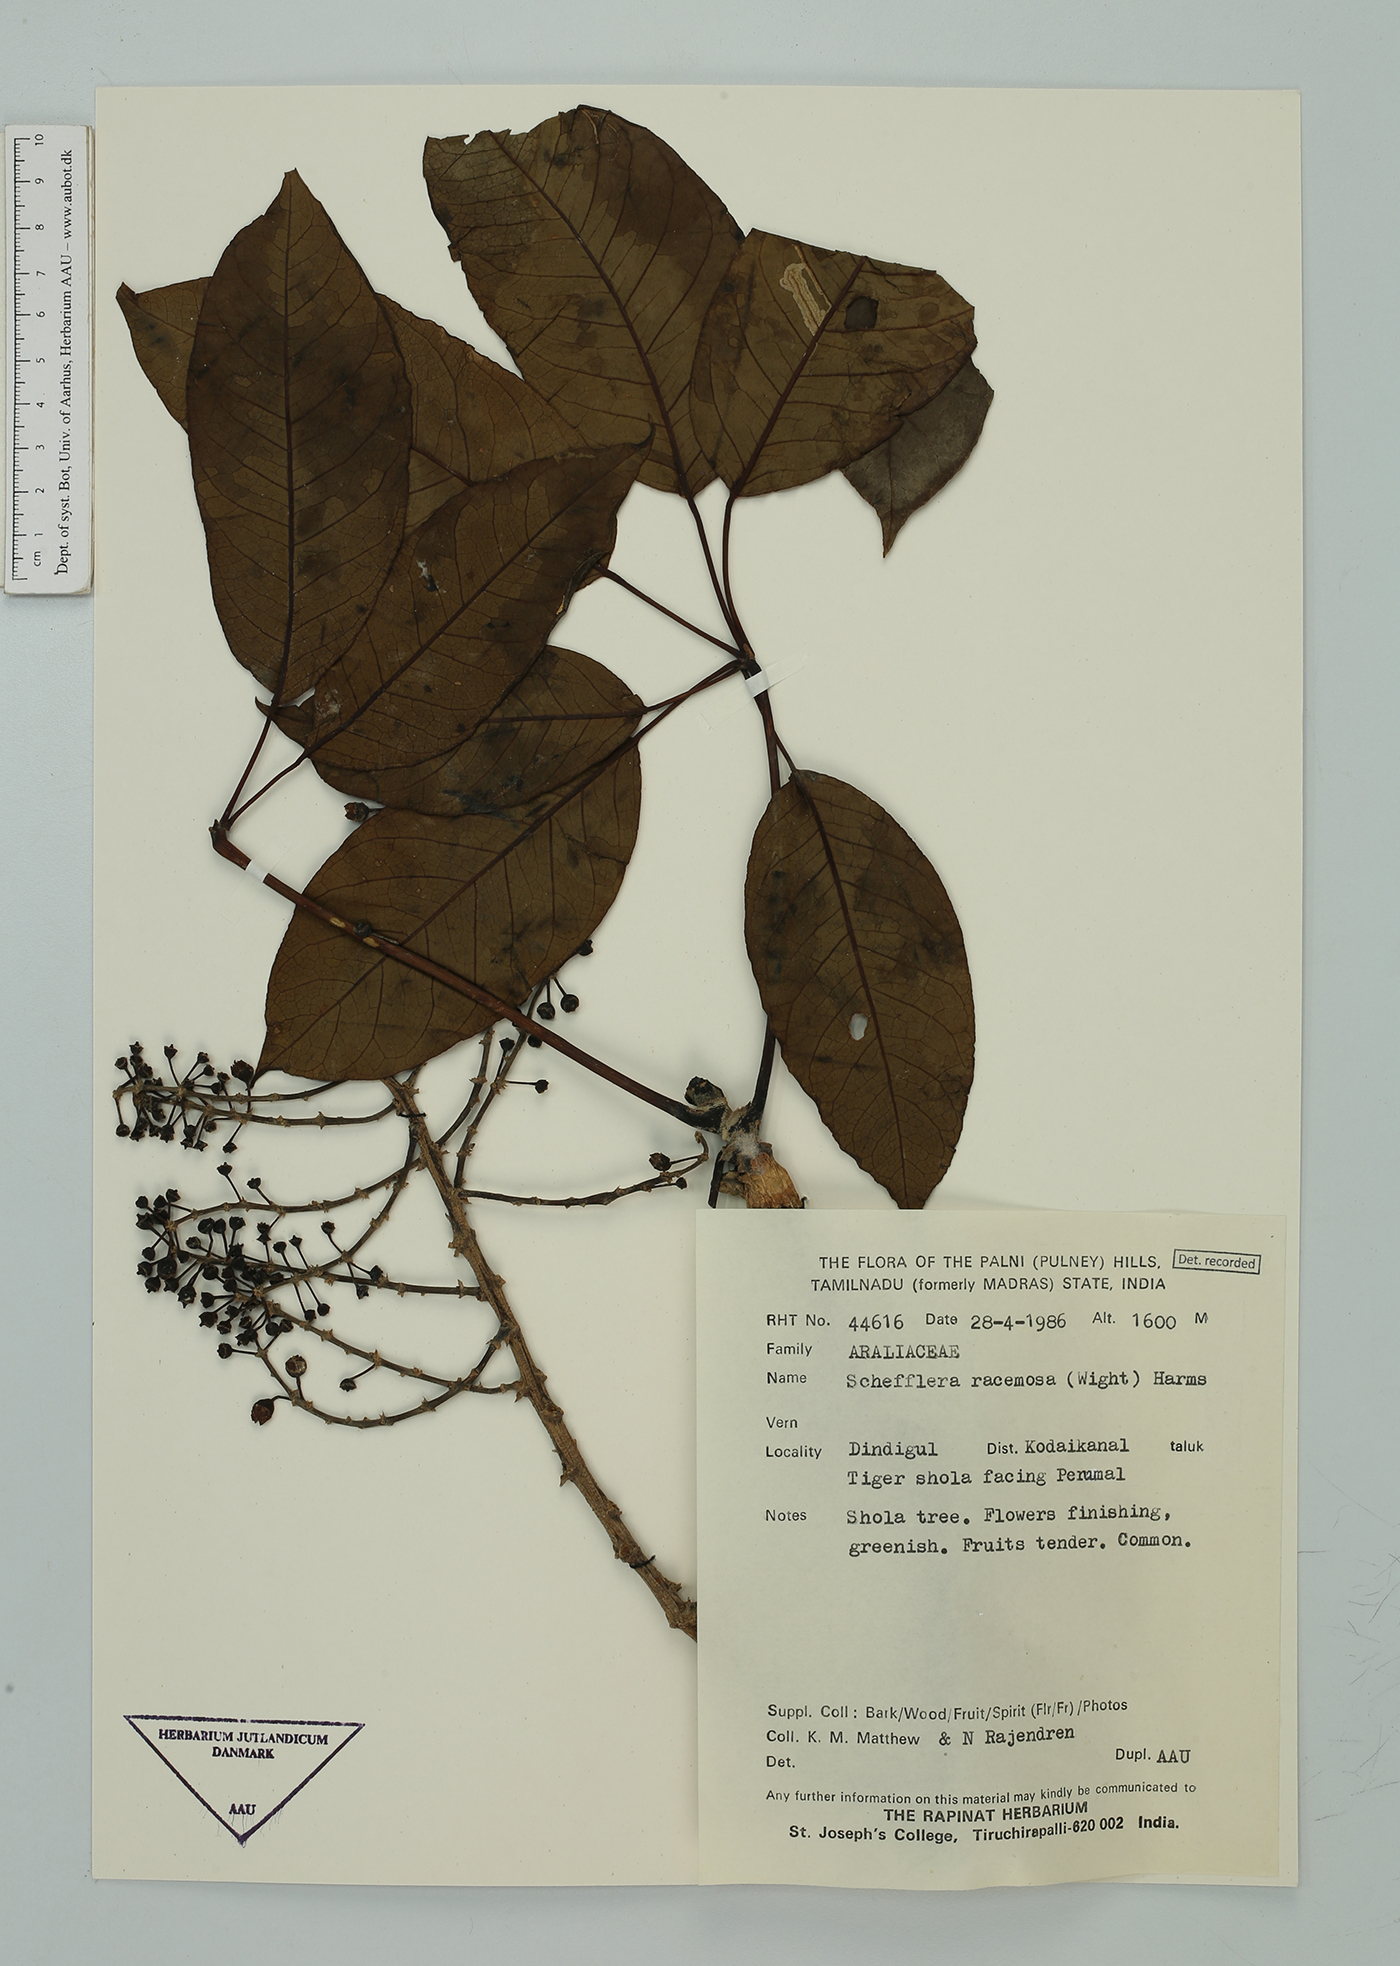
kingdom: Plantae
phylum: Tracheophyta
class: Magnoliopsida
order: Apiales
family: Araliaceae
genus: Heptapleurum
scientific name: Heptapleurum racemosum
